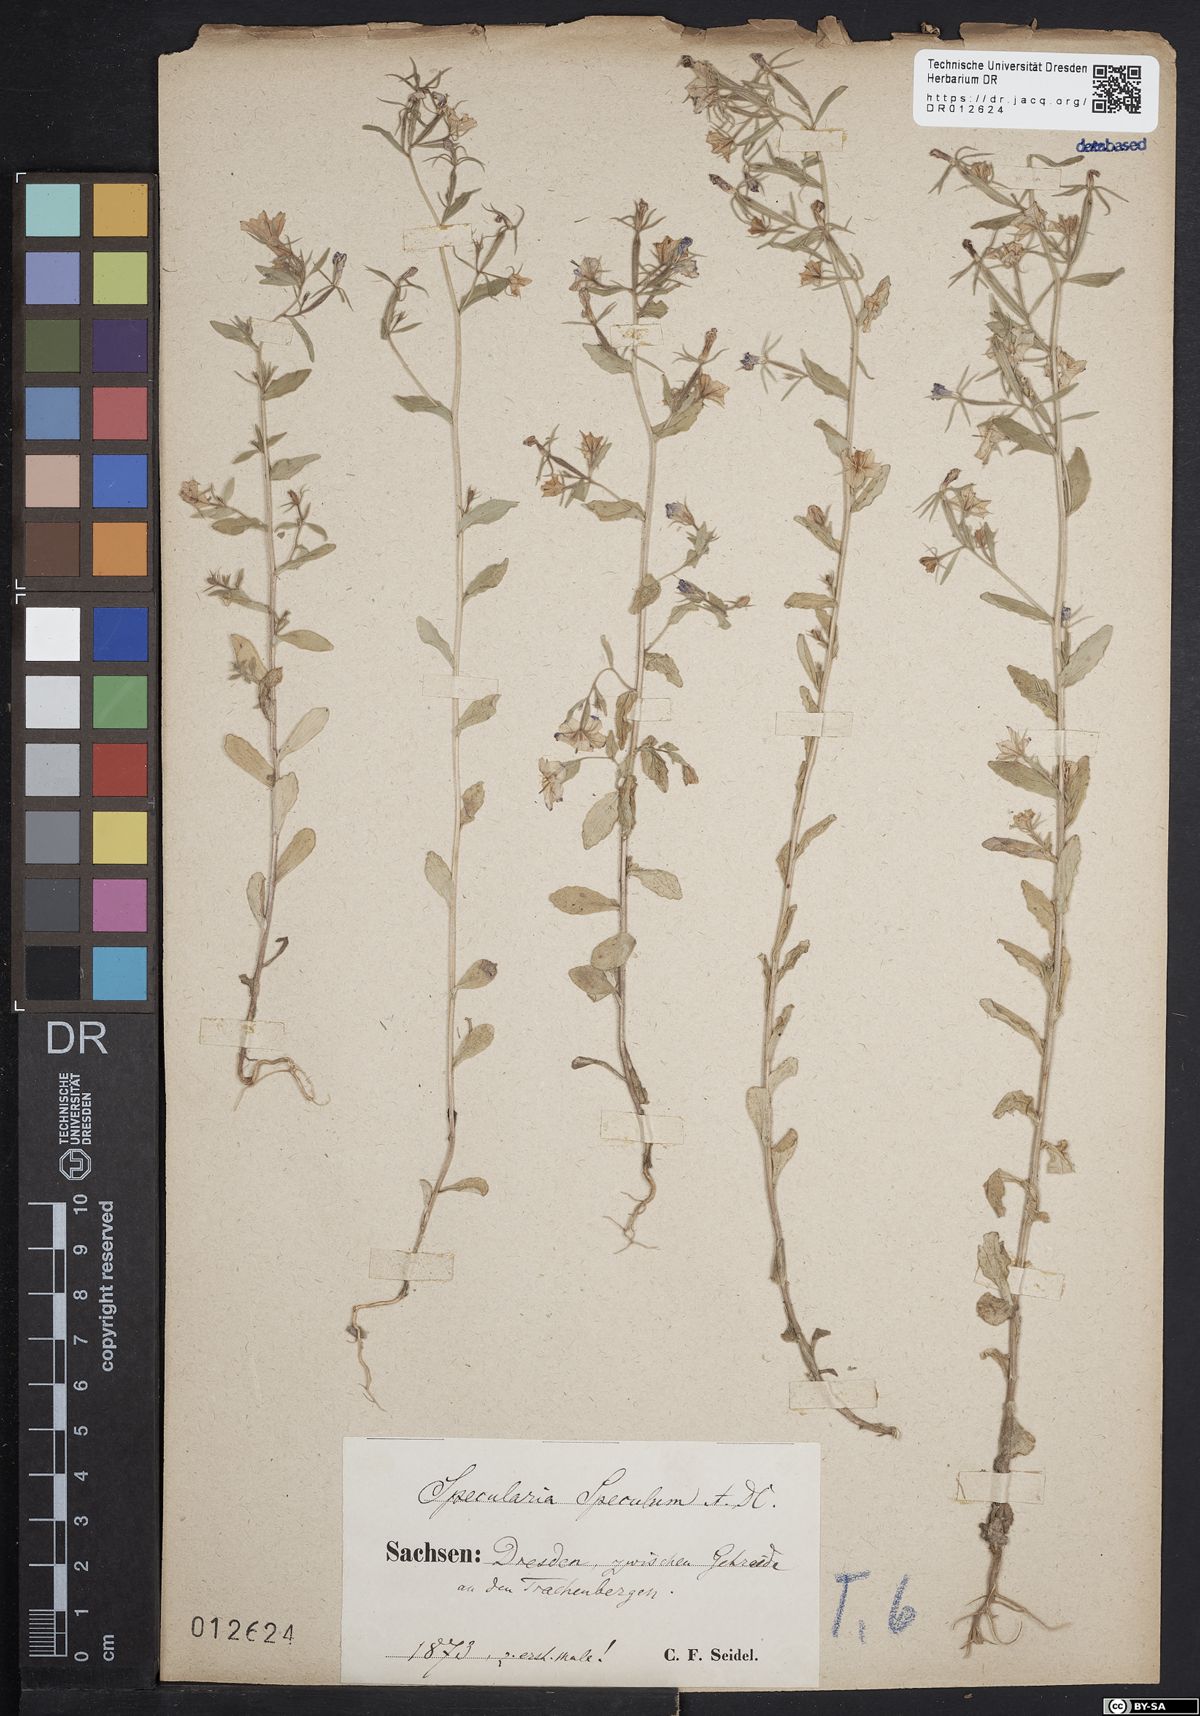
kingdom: Plantae
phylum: Tracheophyta
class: Magnoliopsida
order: Asterales
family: Campanulaceae
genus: Legousia
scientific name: Legousia speculum-veneris
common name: Large venus's-looking-glass
